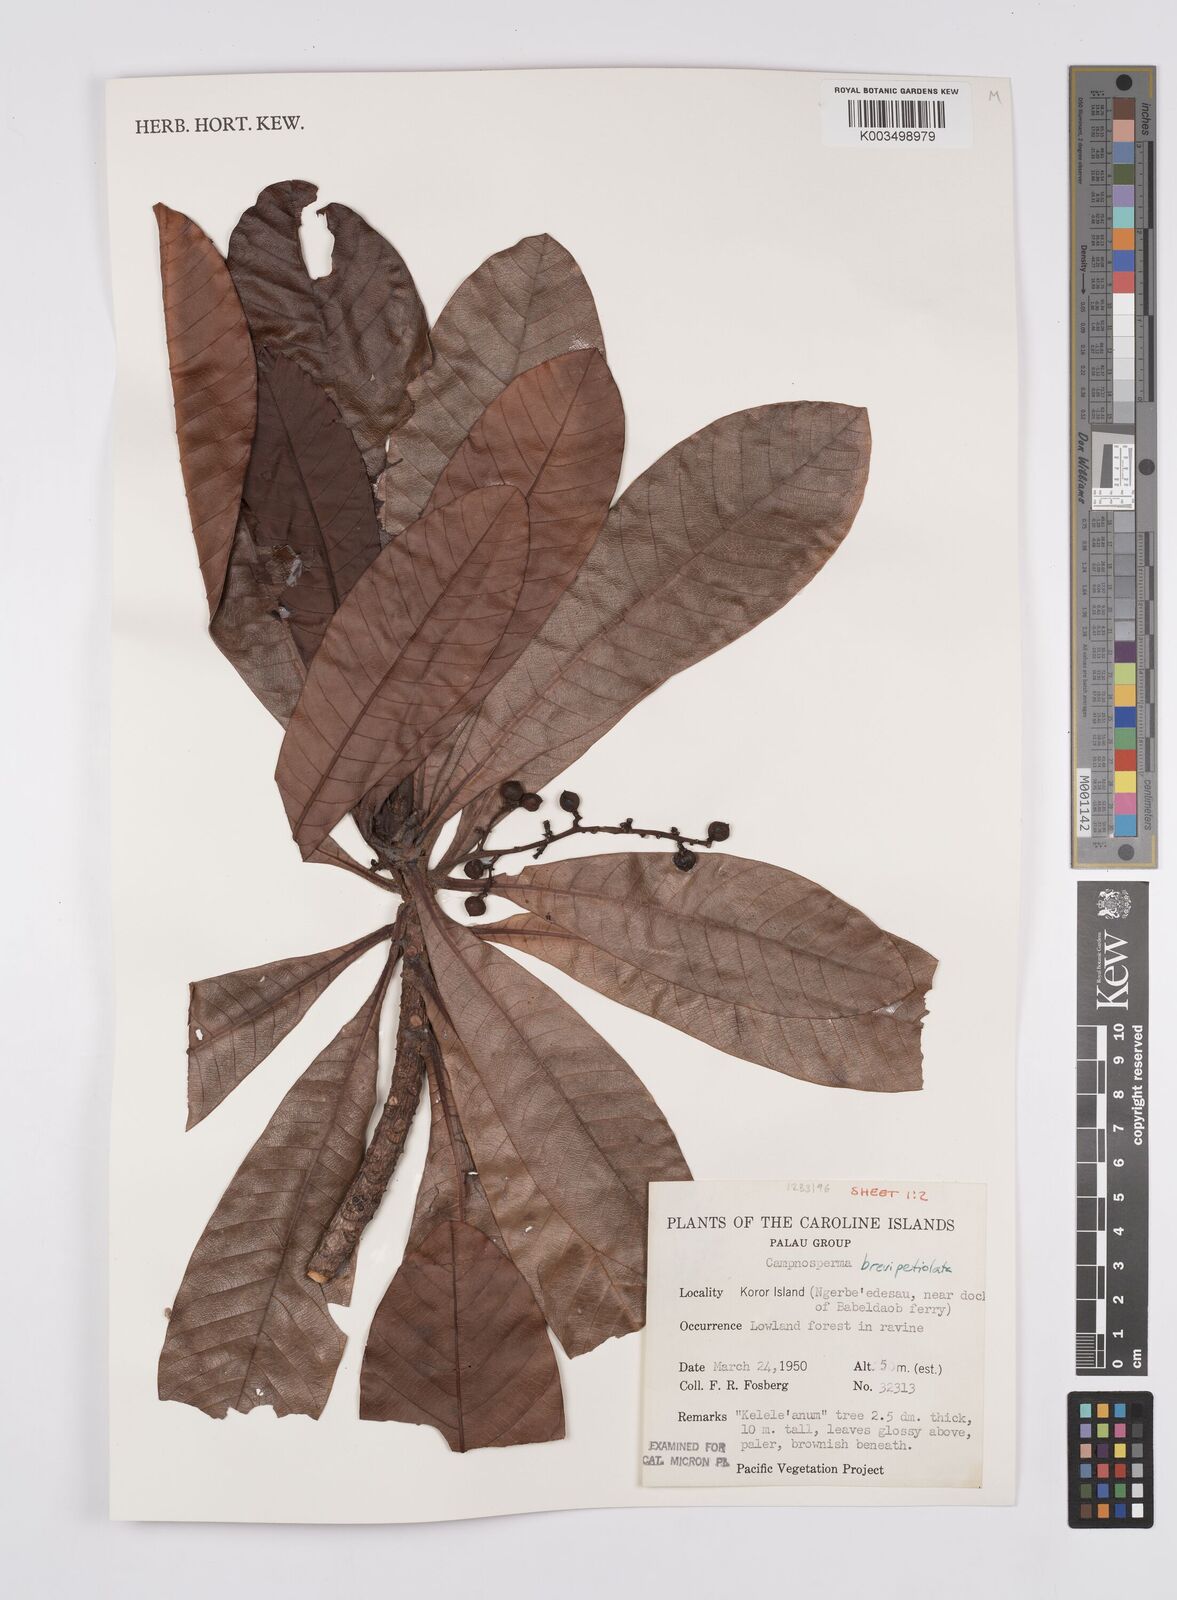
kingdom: Plantae
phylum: Tracheophyta
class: Magnoliopsida
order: Sapindales
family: Anacardiaceae
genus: Campnosperma
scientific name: Campnosperma brevipetiolatum
